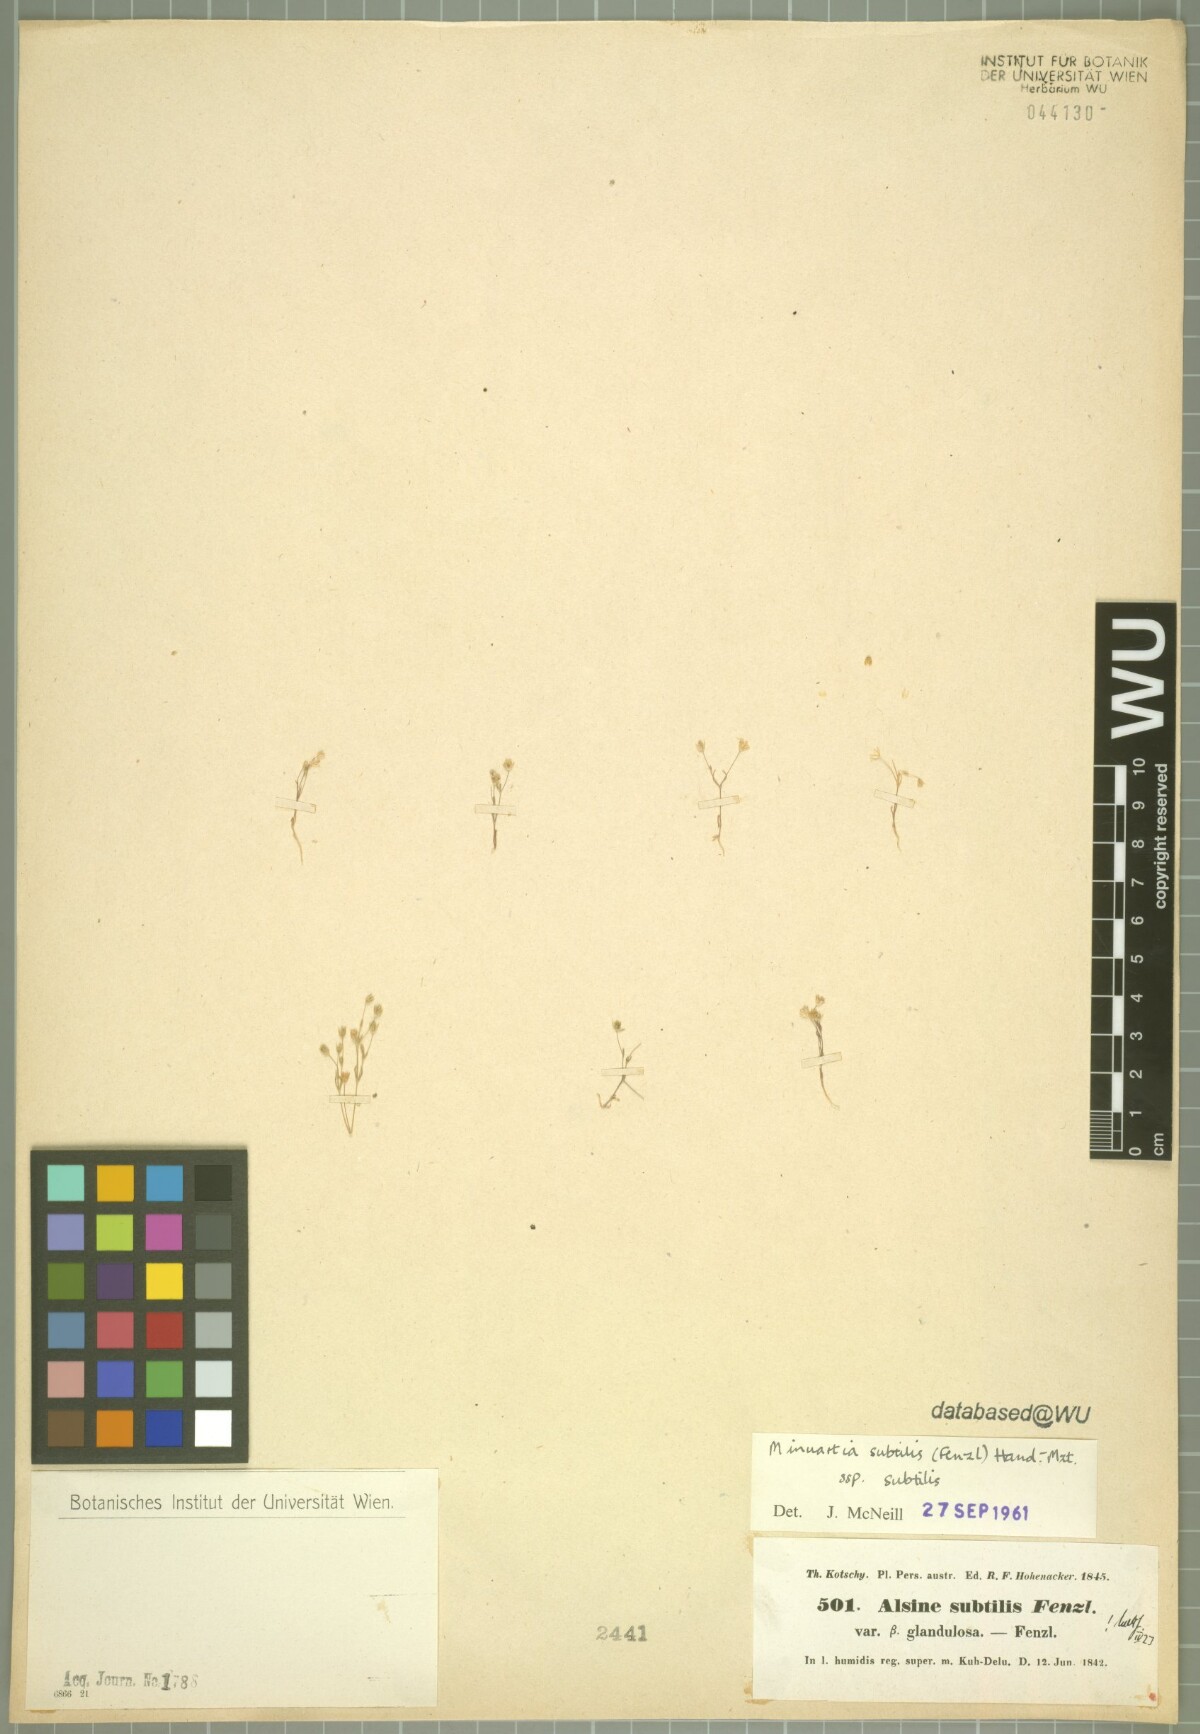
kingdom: Plantae
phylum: Tracheophyta
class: Magnoliopsida
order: Caryophyllales
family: Caryophyllaceae
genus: Sabulina
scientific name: Sabulina subtilis
